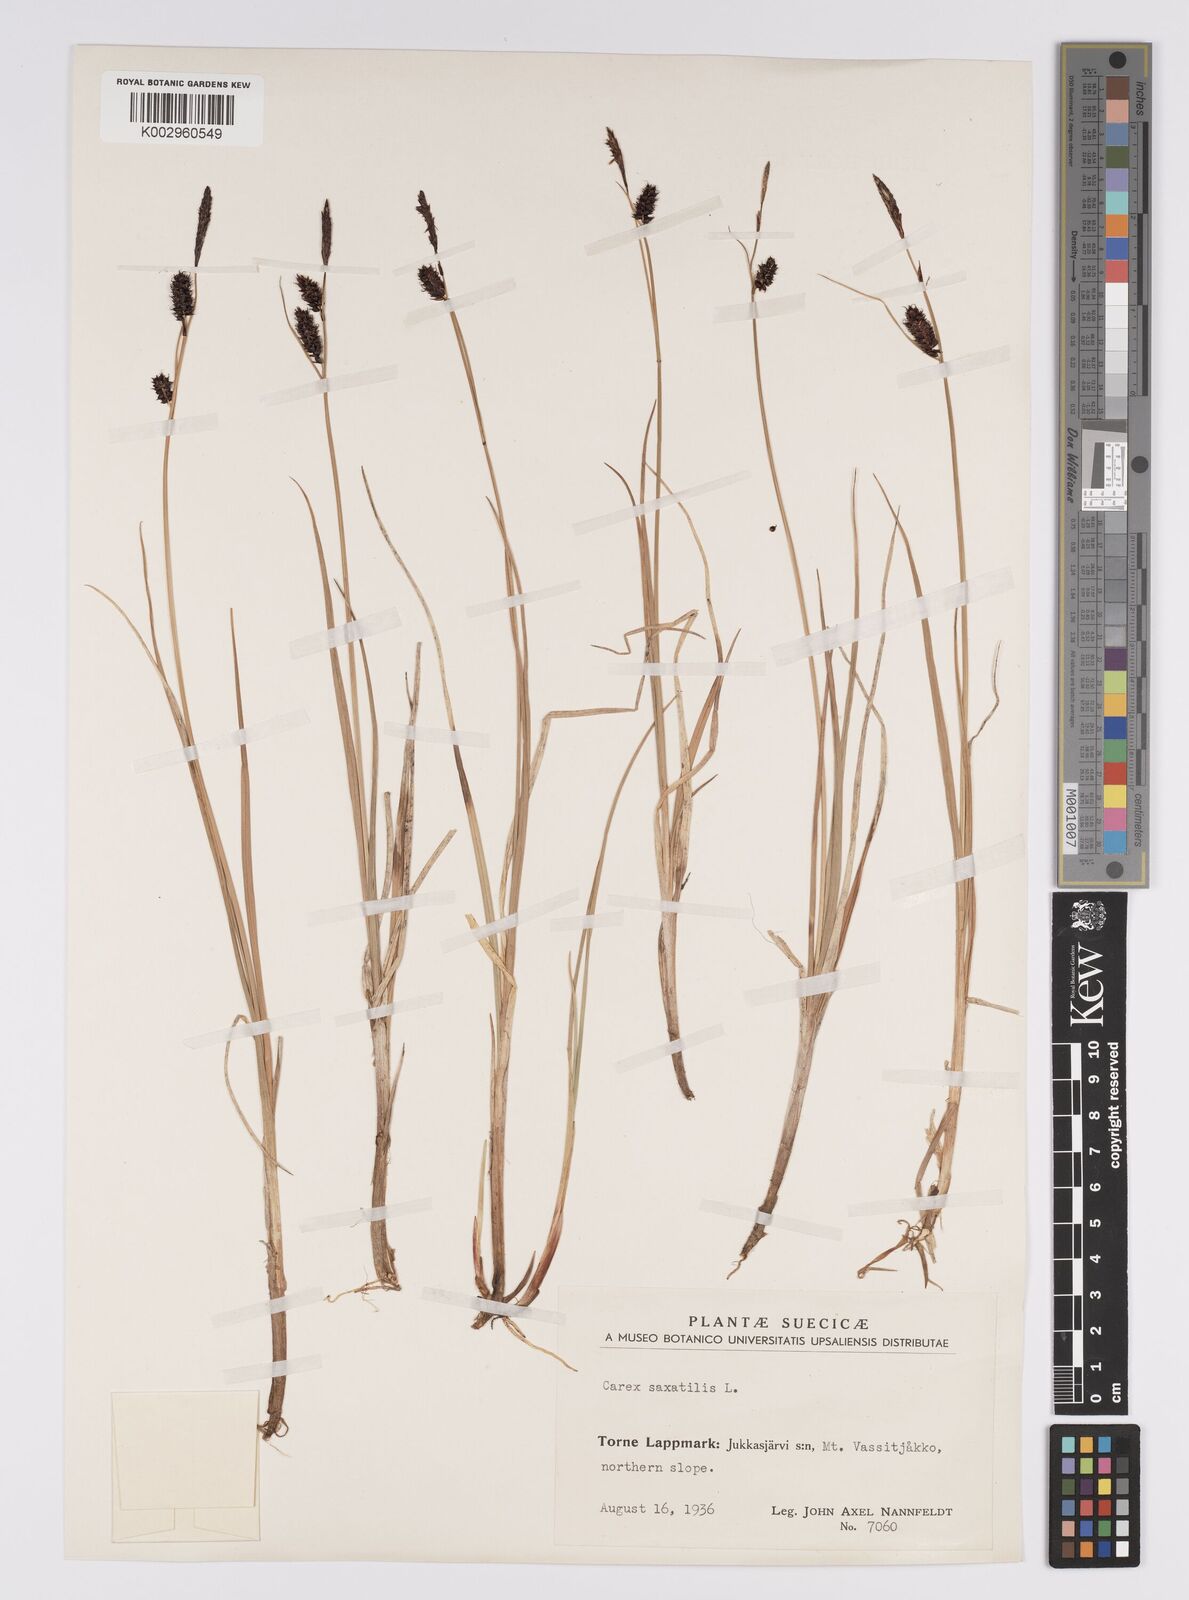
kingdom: Plantae
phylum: Tracheophyta
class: Liliopsida
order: Poales
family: Cyperaceae
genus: Carex
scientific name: Carex saxatilis
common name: Russet sedge
